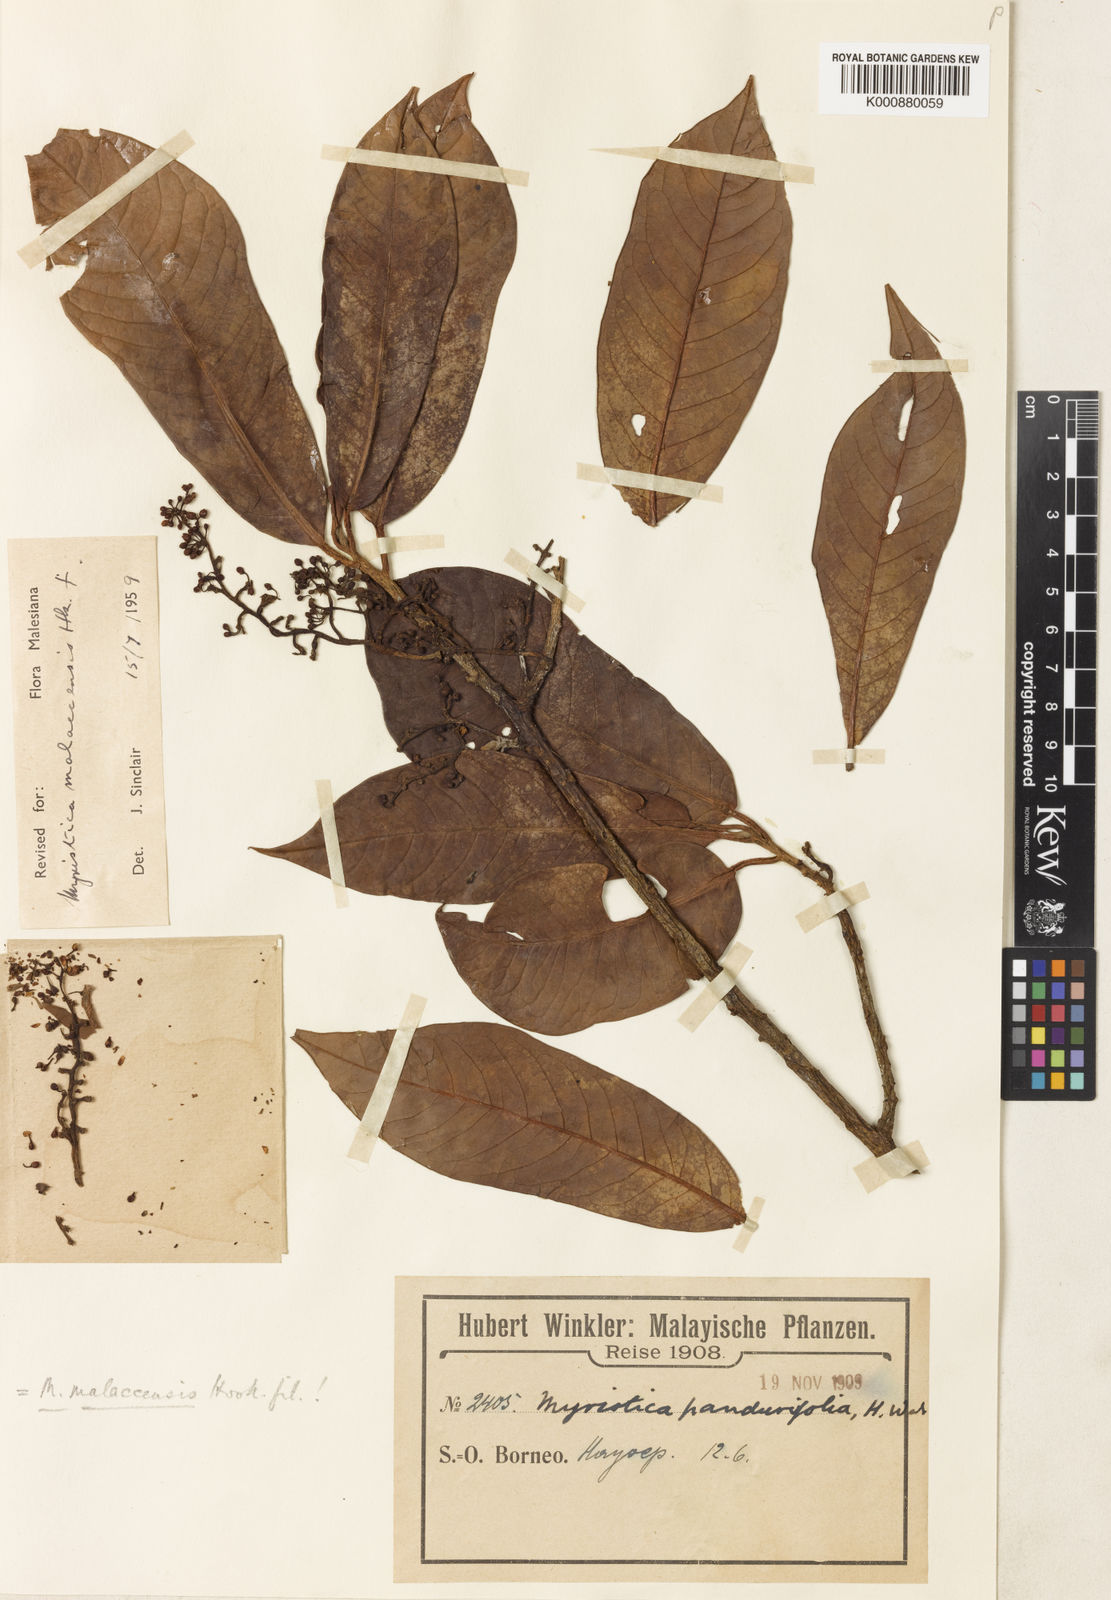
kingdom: Plantae
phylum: Tracheophyta
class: Magnoliopsida
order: Magnoliales
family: Myristicaceae
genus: Myristica
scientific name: Myristica malaccensis
